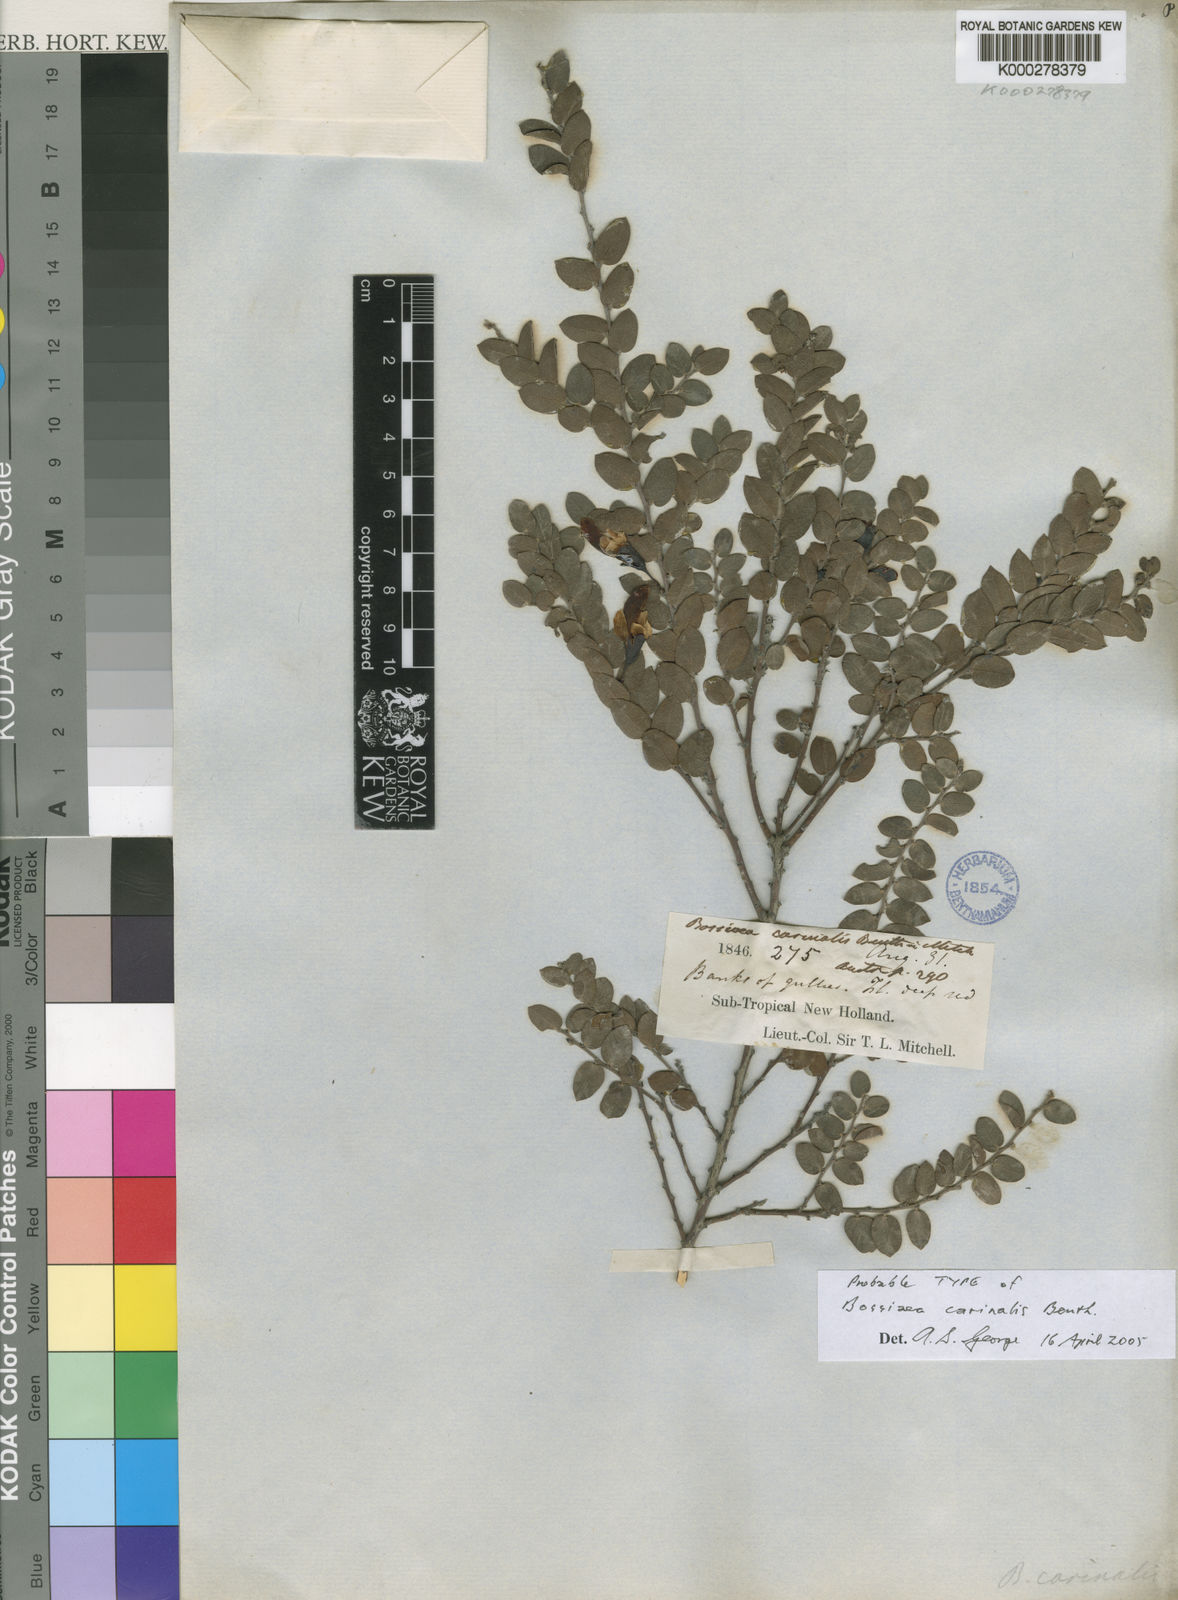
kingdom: Plantae
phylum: Tracheophyta
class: Magnoliopsida
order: Fabales
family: Fabaceae
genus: Bossiaea
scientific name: Bossiaea carinalis
